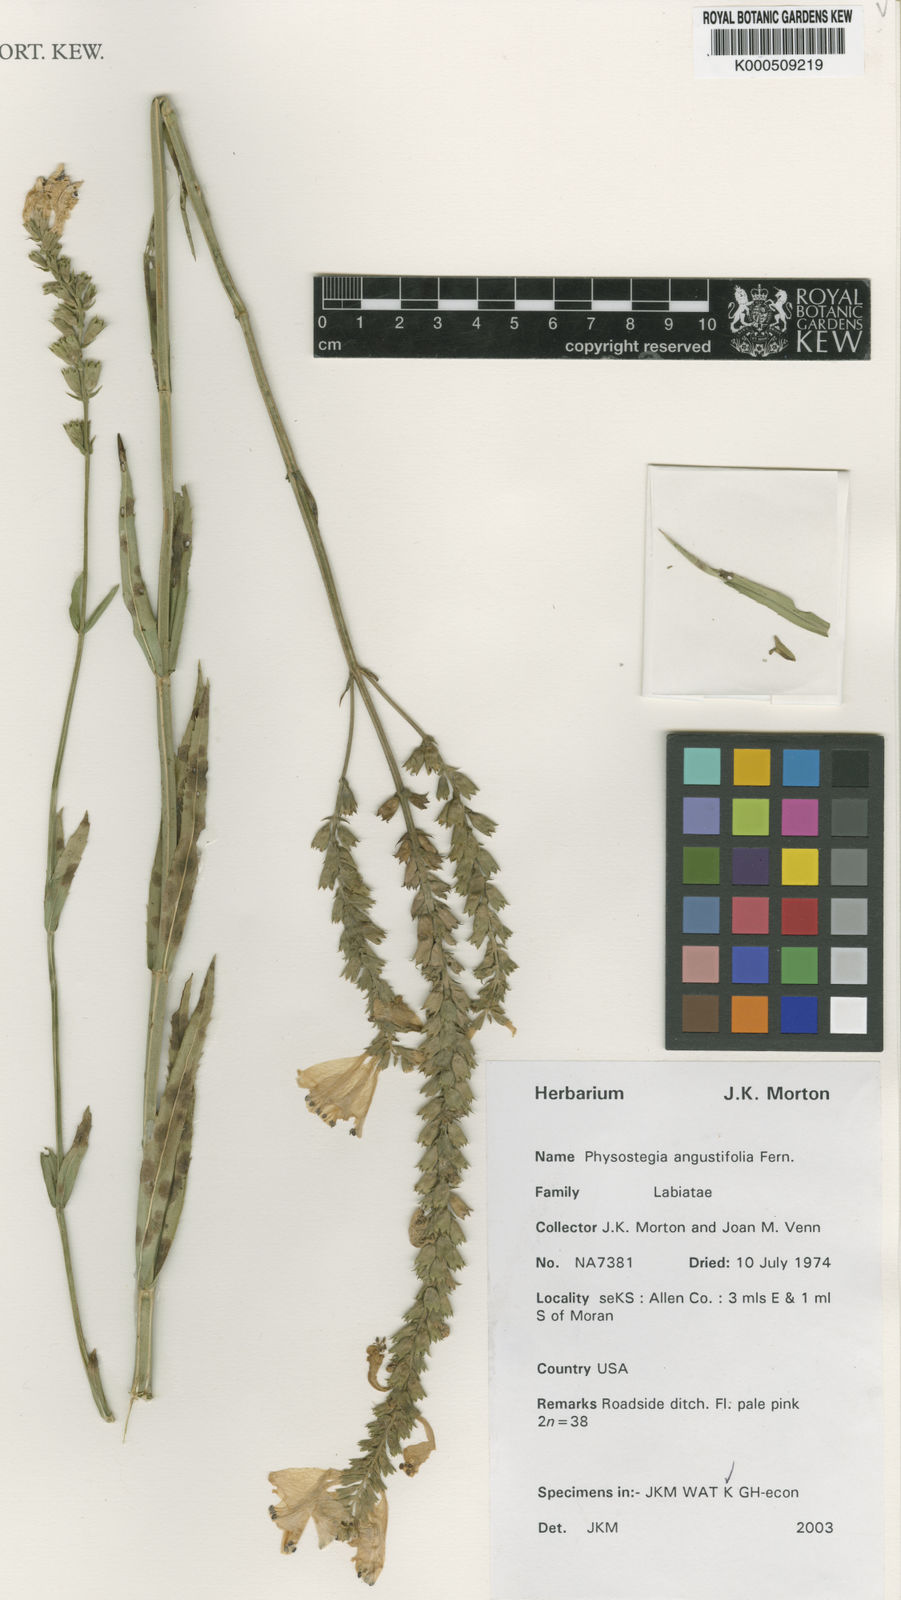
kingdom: Plantae
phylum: Tracheophyta
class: Magnoliopsida
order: Lamiales
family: Lamiaceae
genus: Physostegia
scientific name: Physostegia angustifolia
